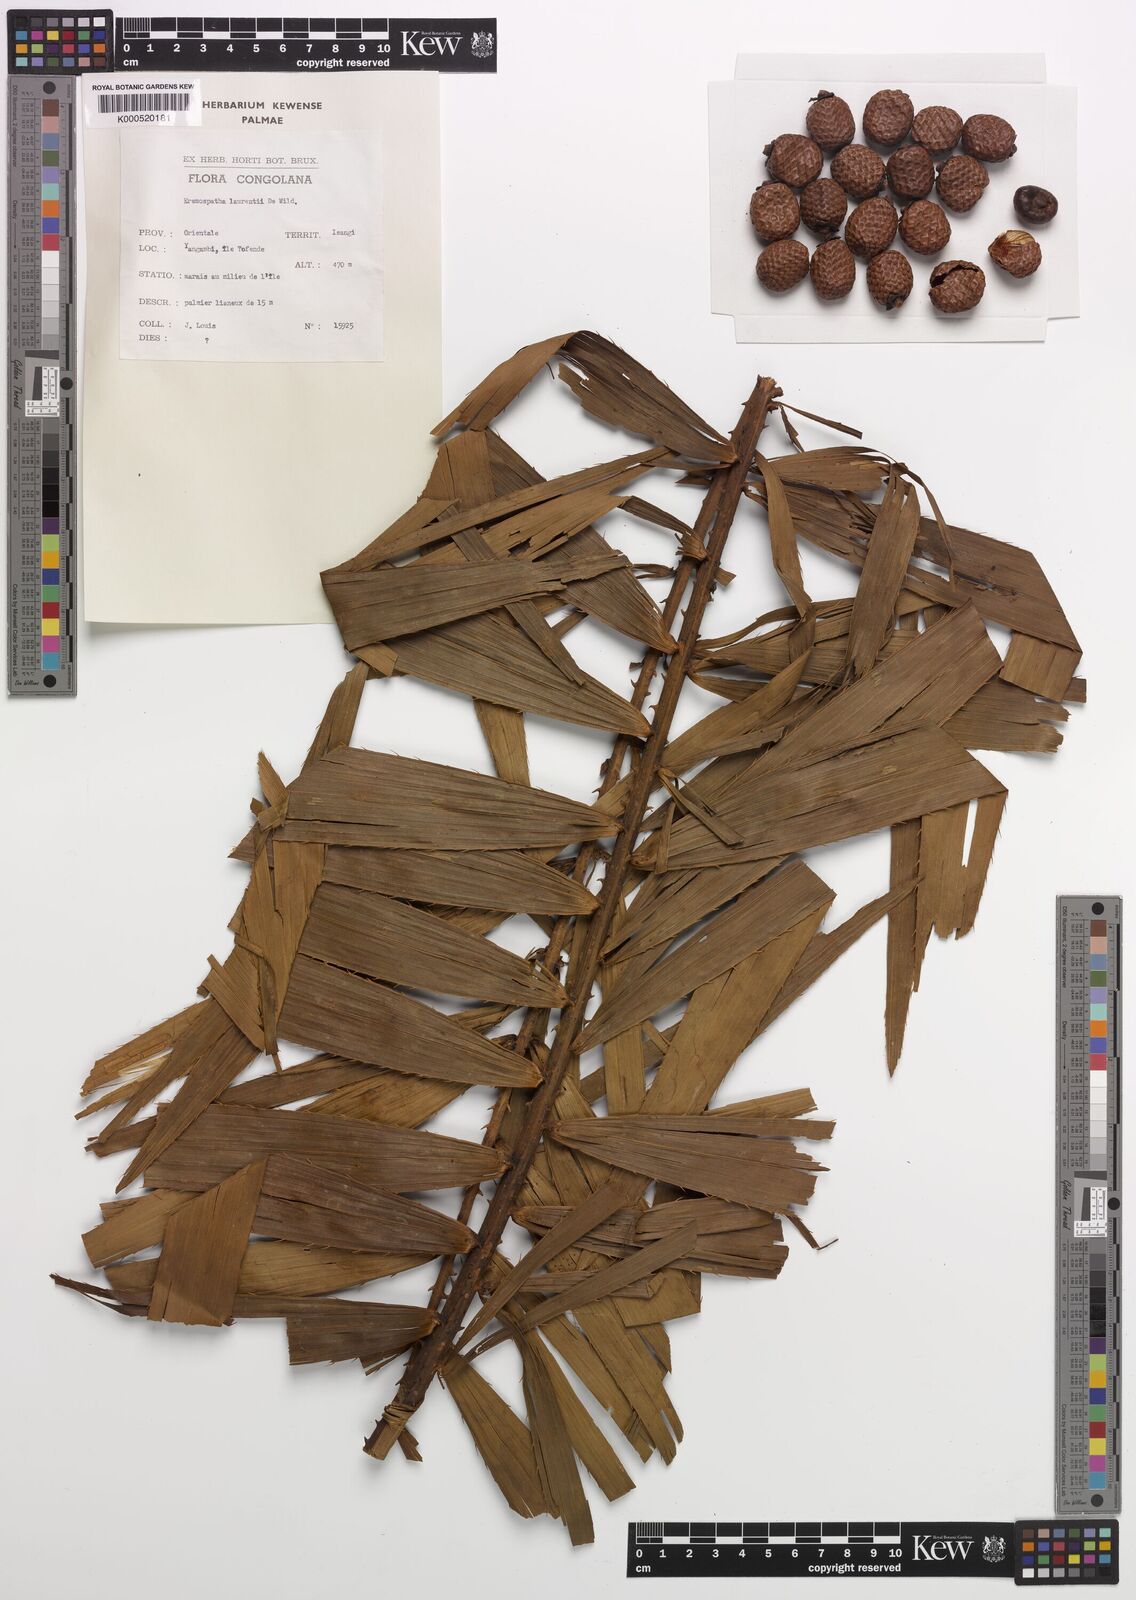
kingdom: Plantae
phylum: Tracheophyta
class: Liliopsida
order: Arecales
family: Arecaceae
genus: Eremospatha
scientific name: Eremospatha laurentii
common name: Rattan palm
